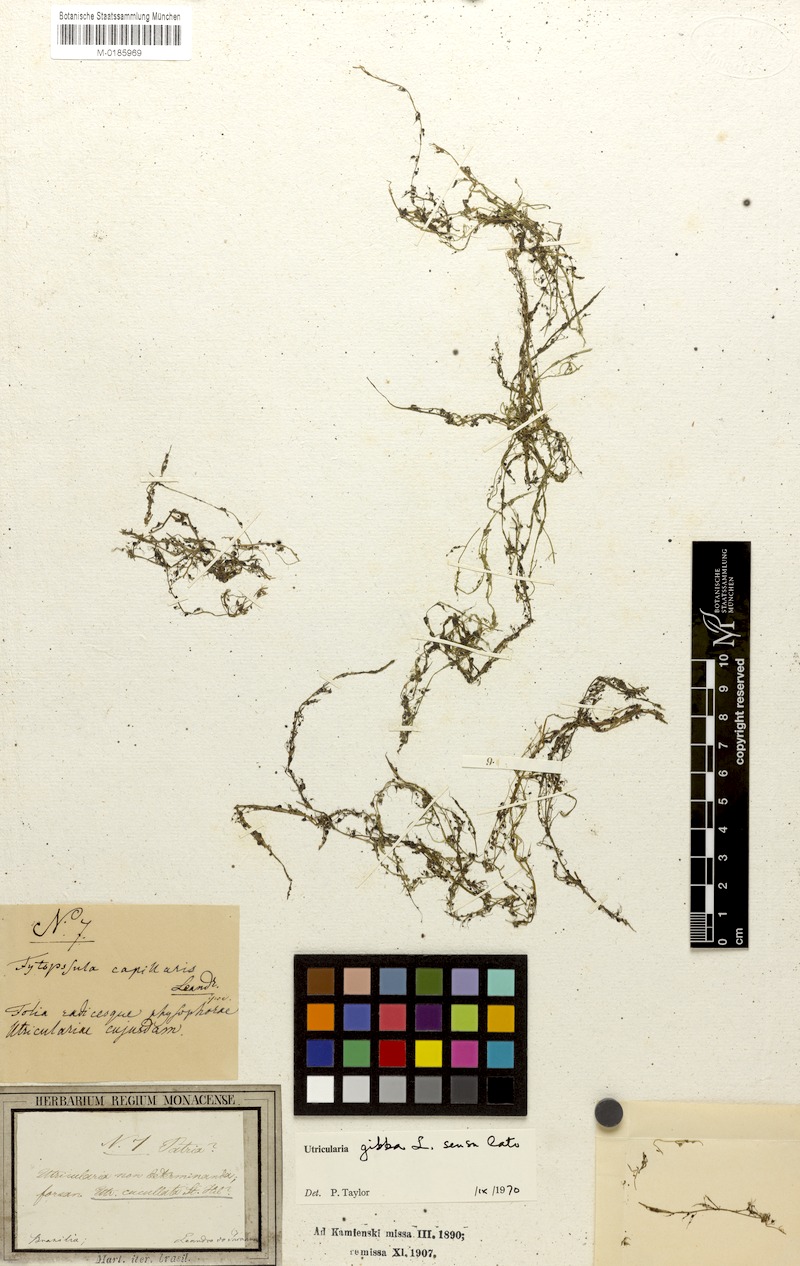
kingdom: Plantae
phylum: Tracheophyta
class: Magnoliopsida
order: Lamiales
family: Lentibulariaceae
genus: Utricularia
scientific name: Utricularia gibba
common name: Humped bladderwort
